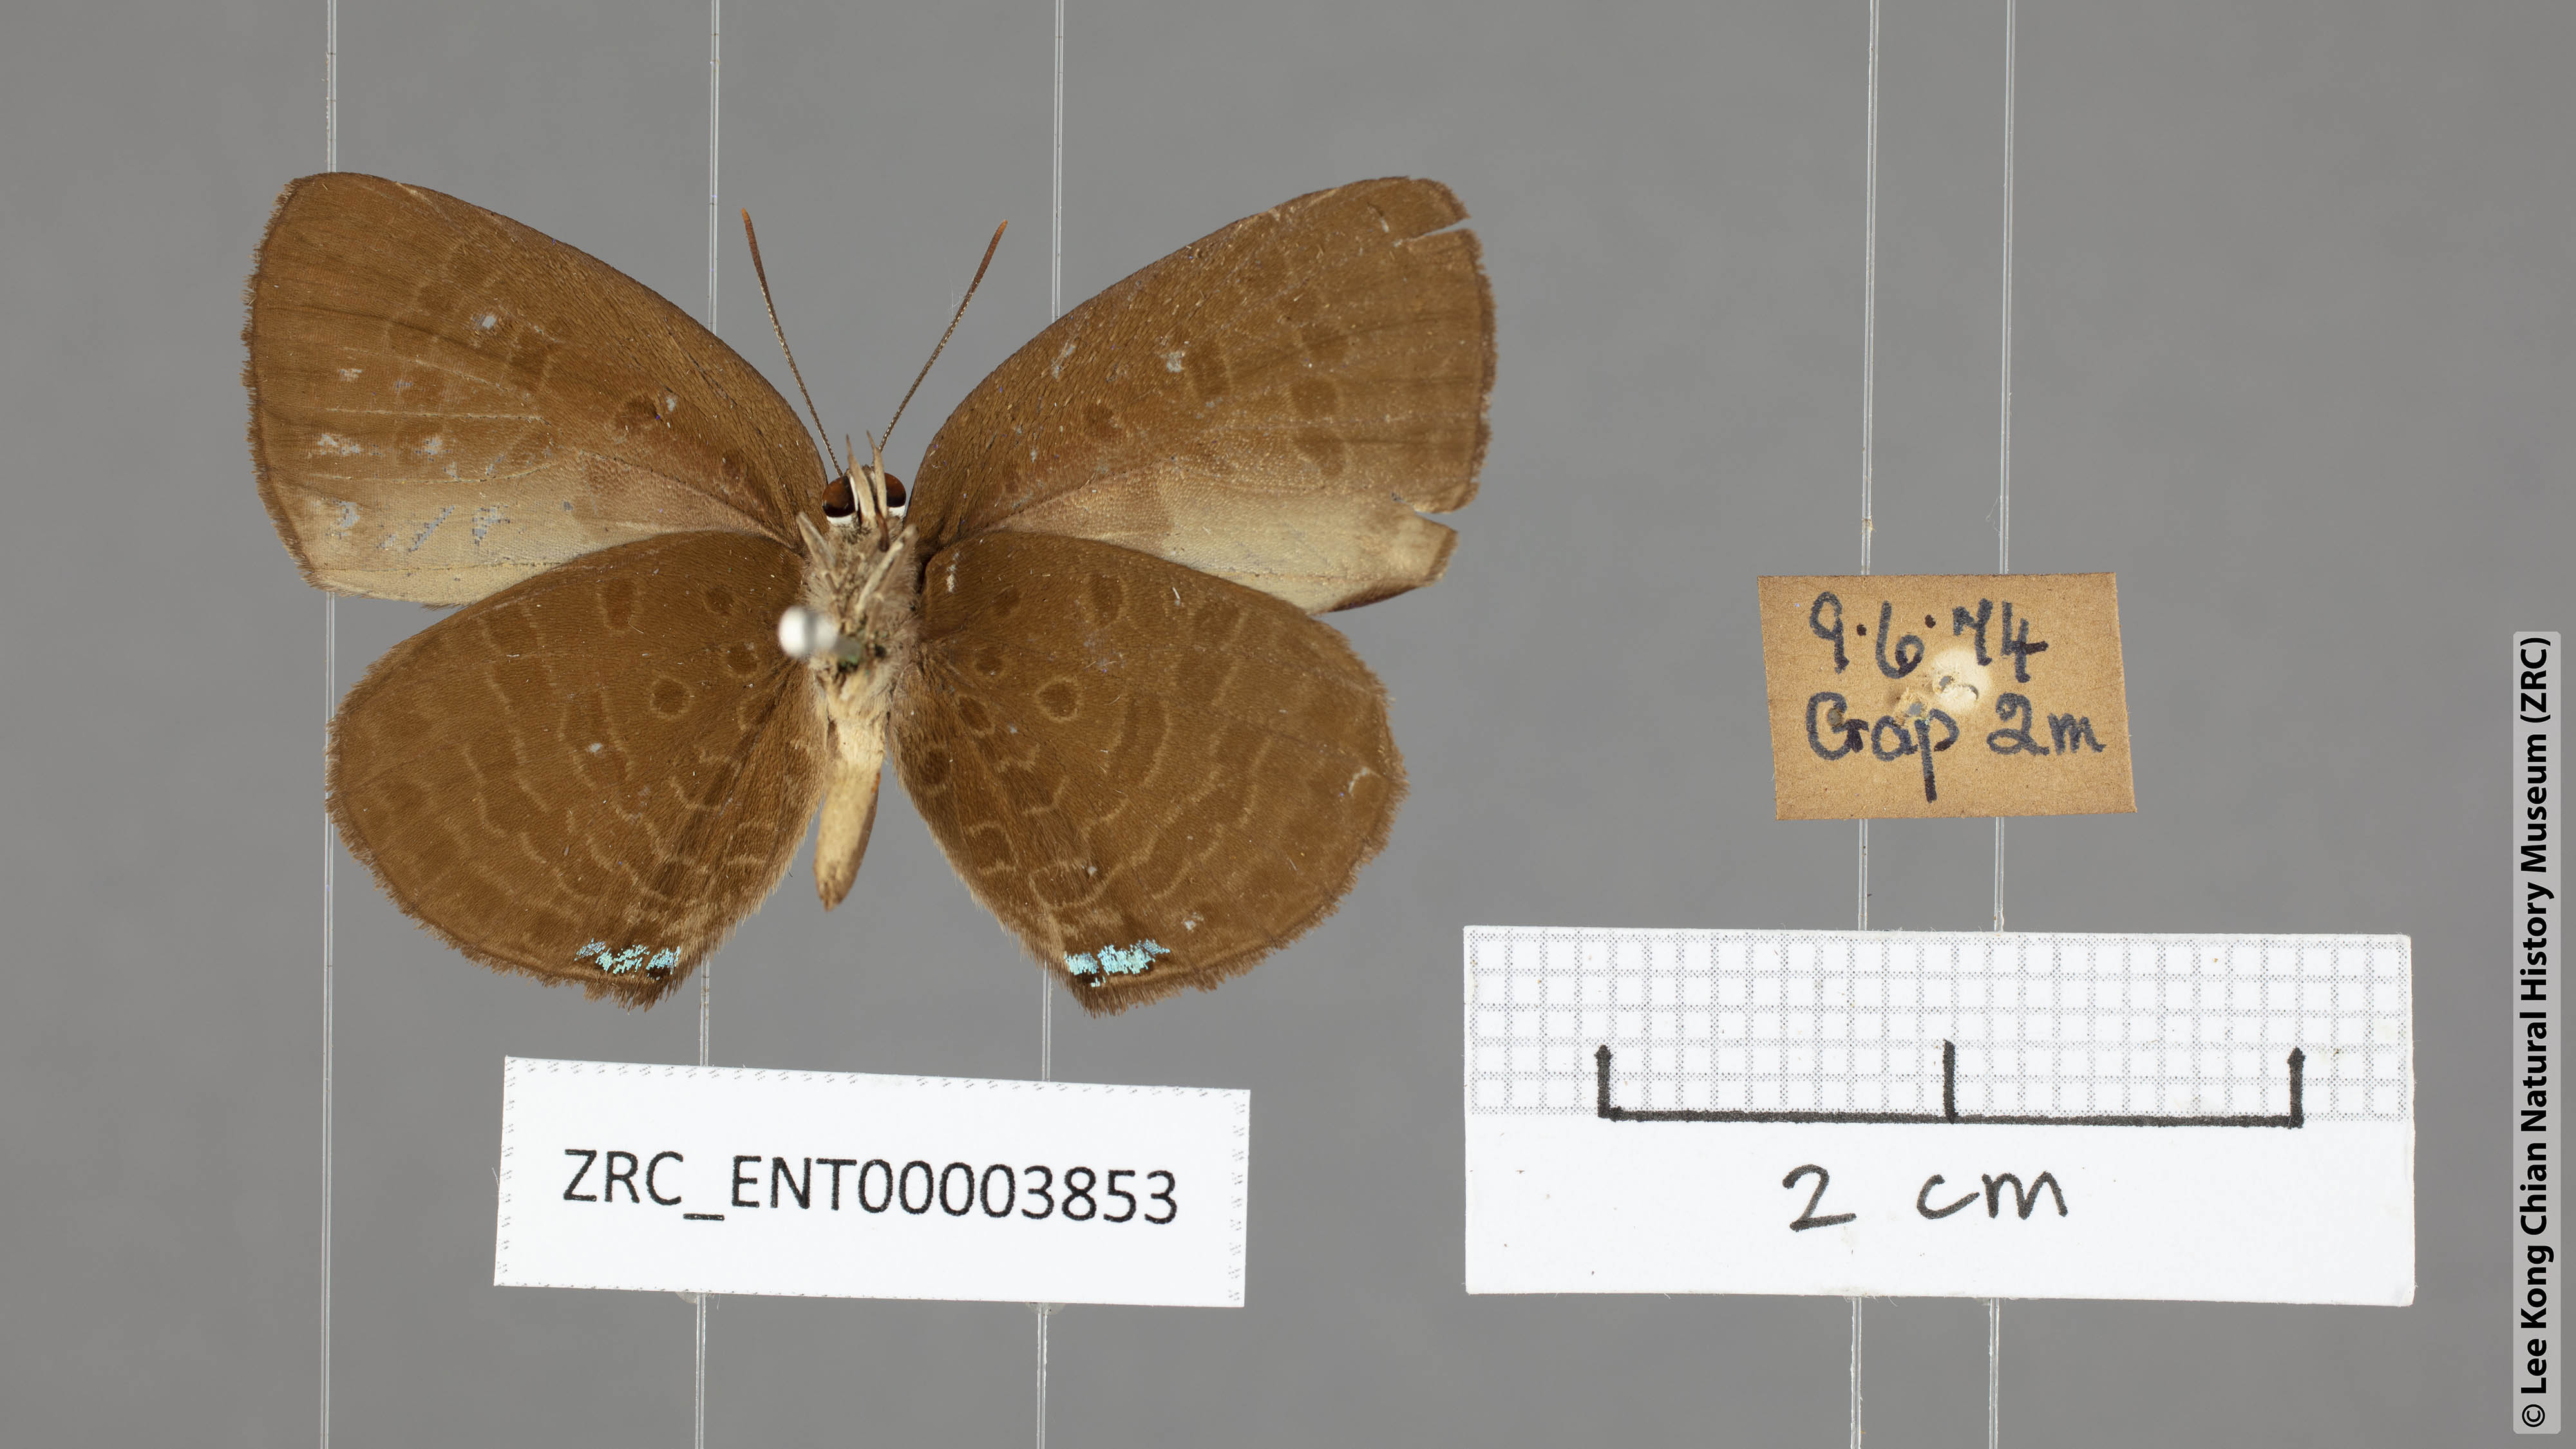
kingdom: Animalia
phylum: Arthropoda
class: Insecta
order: Lepidoptera
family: Lycaenidae
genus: Arhopala
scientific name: Arhopala antimuta
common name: Small tailless oakblue
